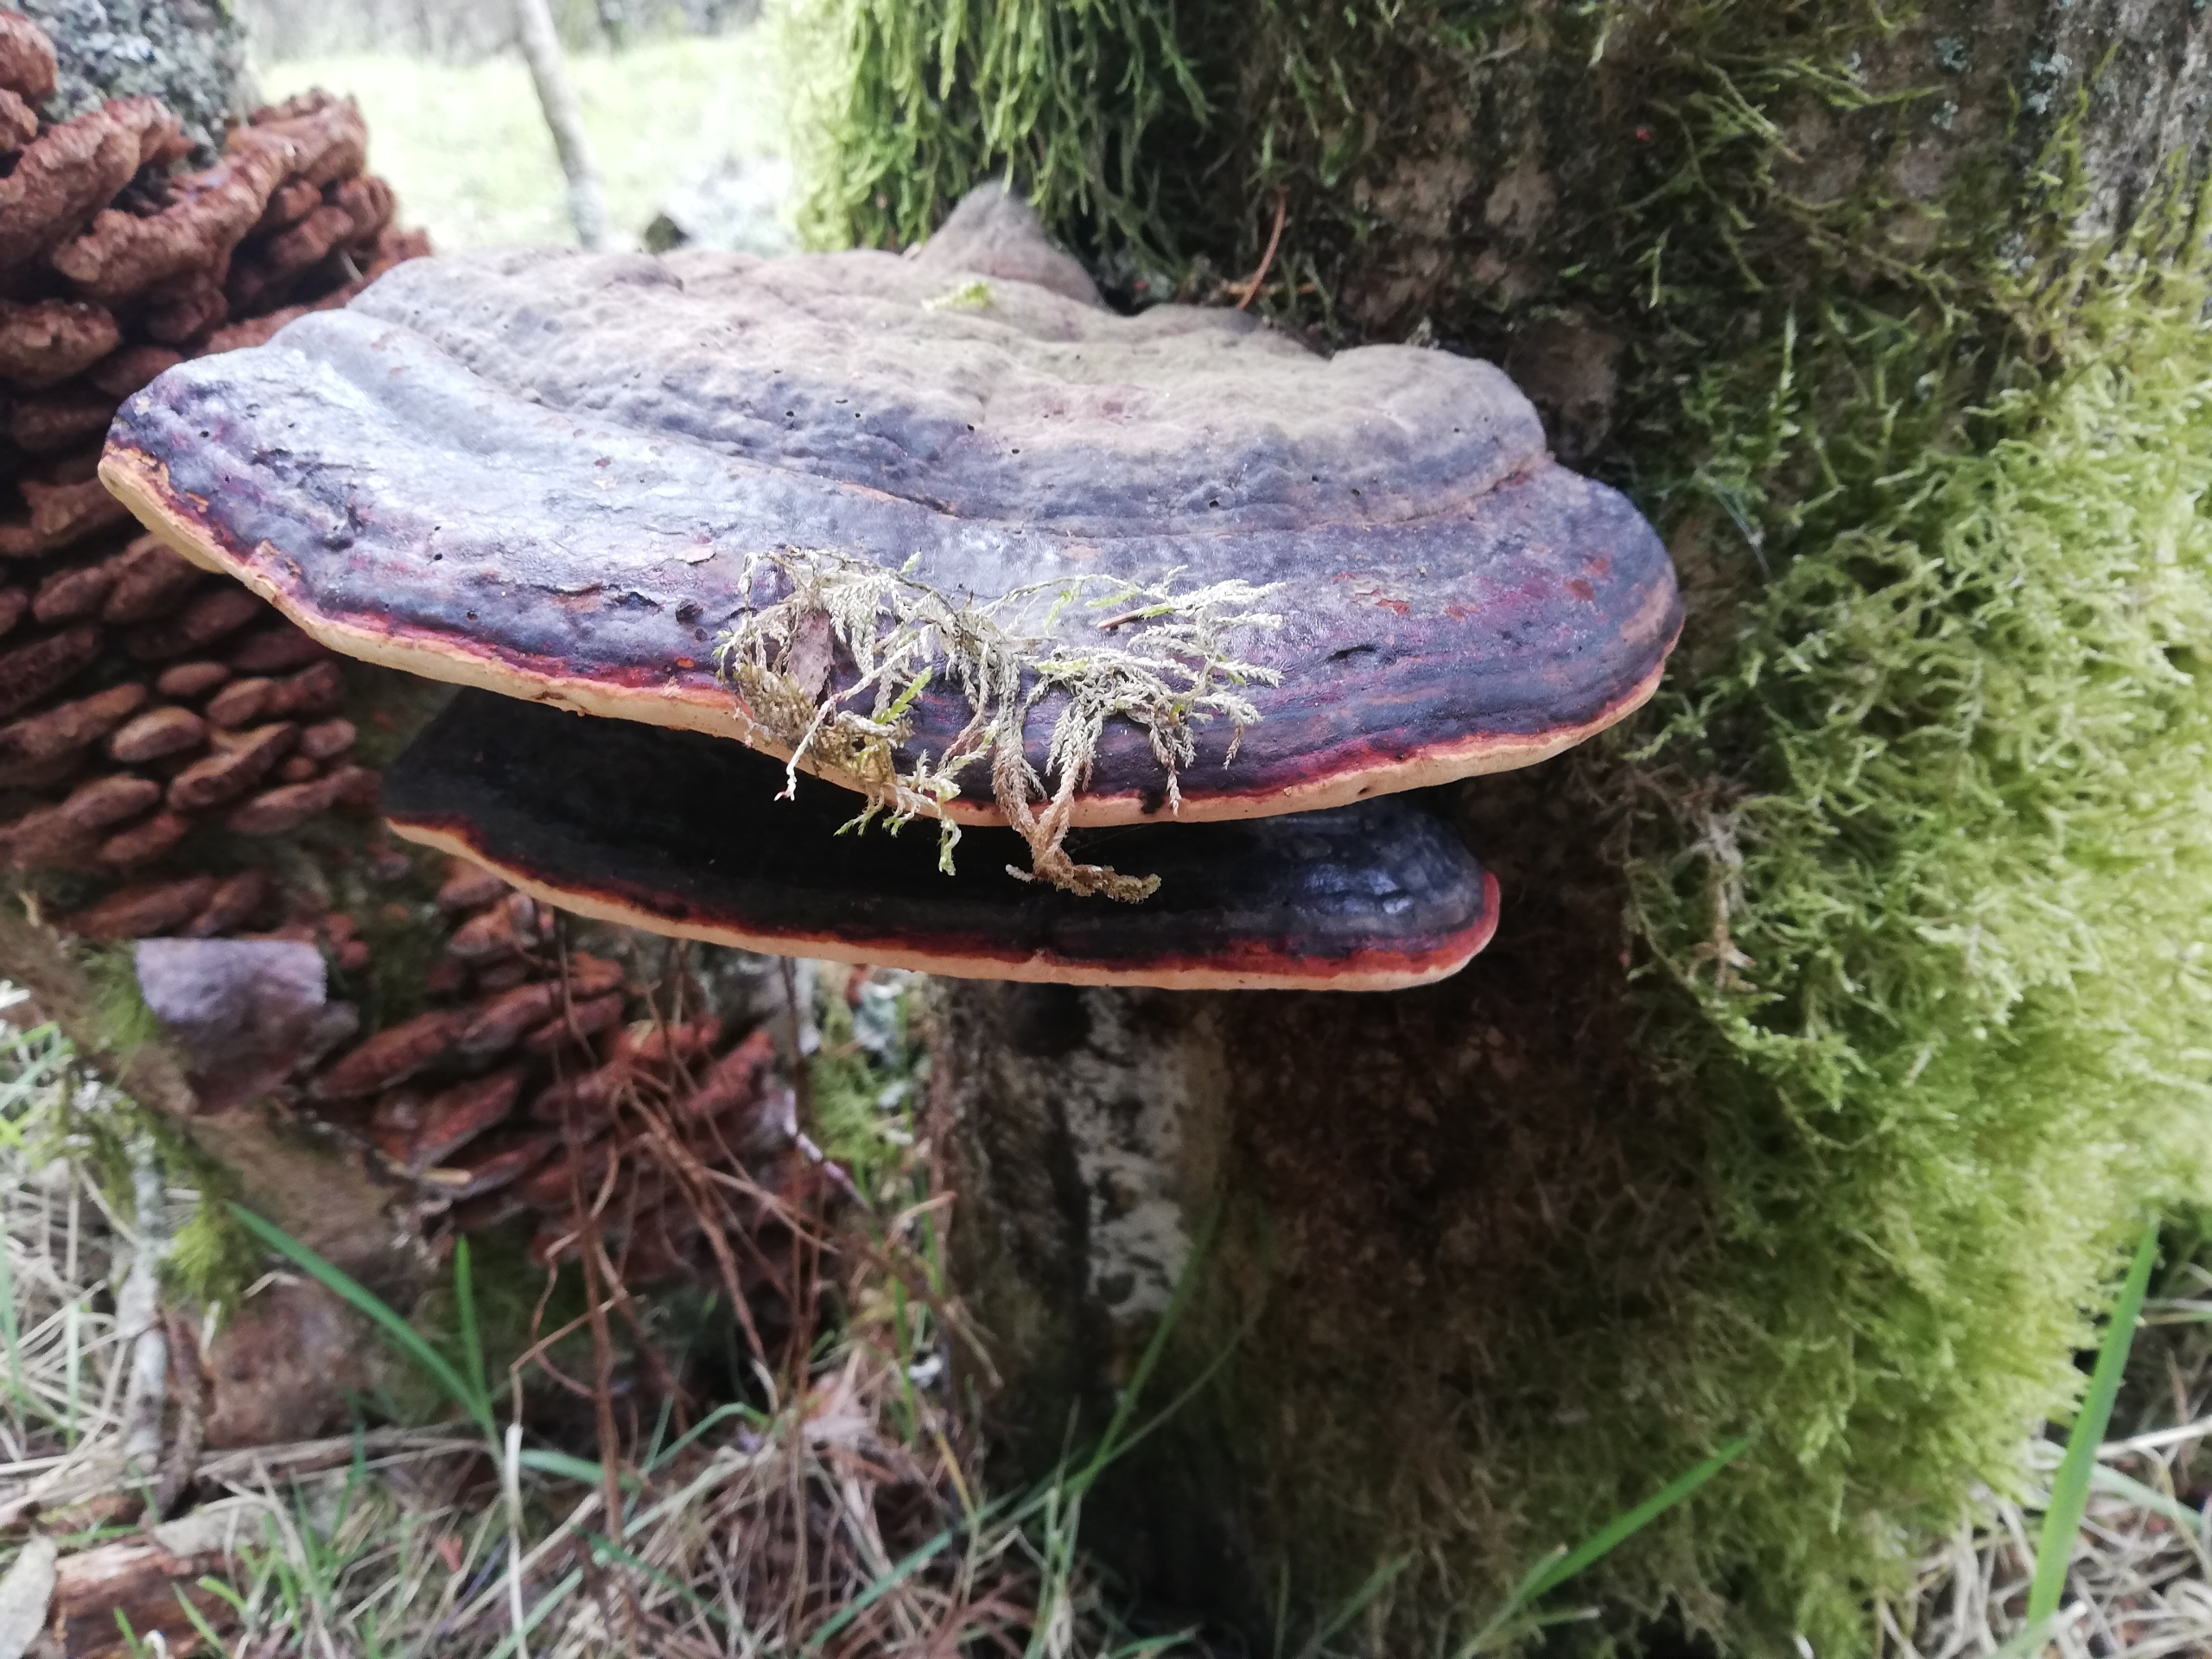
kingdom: Fungi
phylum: Basidiomycota
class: Agaricomycetes
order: Polyporales
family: Fomitopsidaceae
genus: Fomitopsis
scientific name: Fomitopsis pinicola
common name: Randbæltet hovporesvamp
